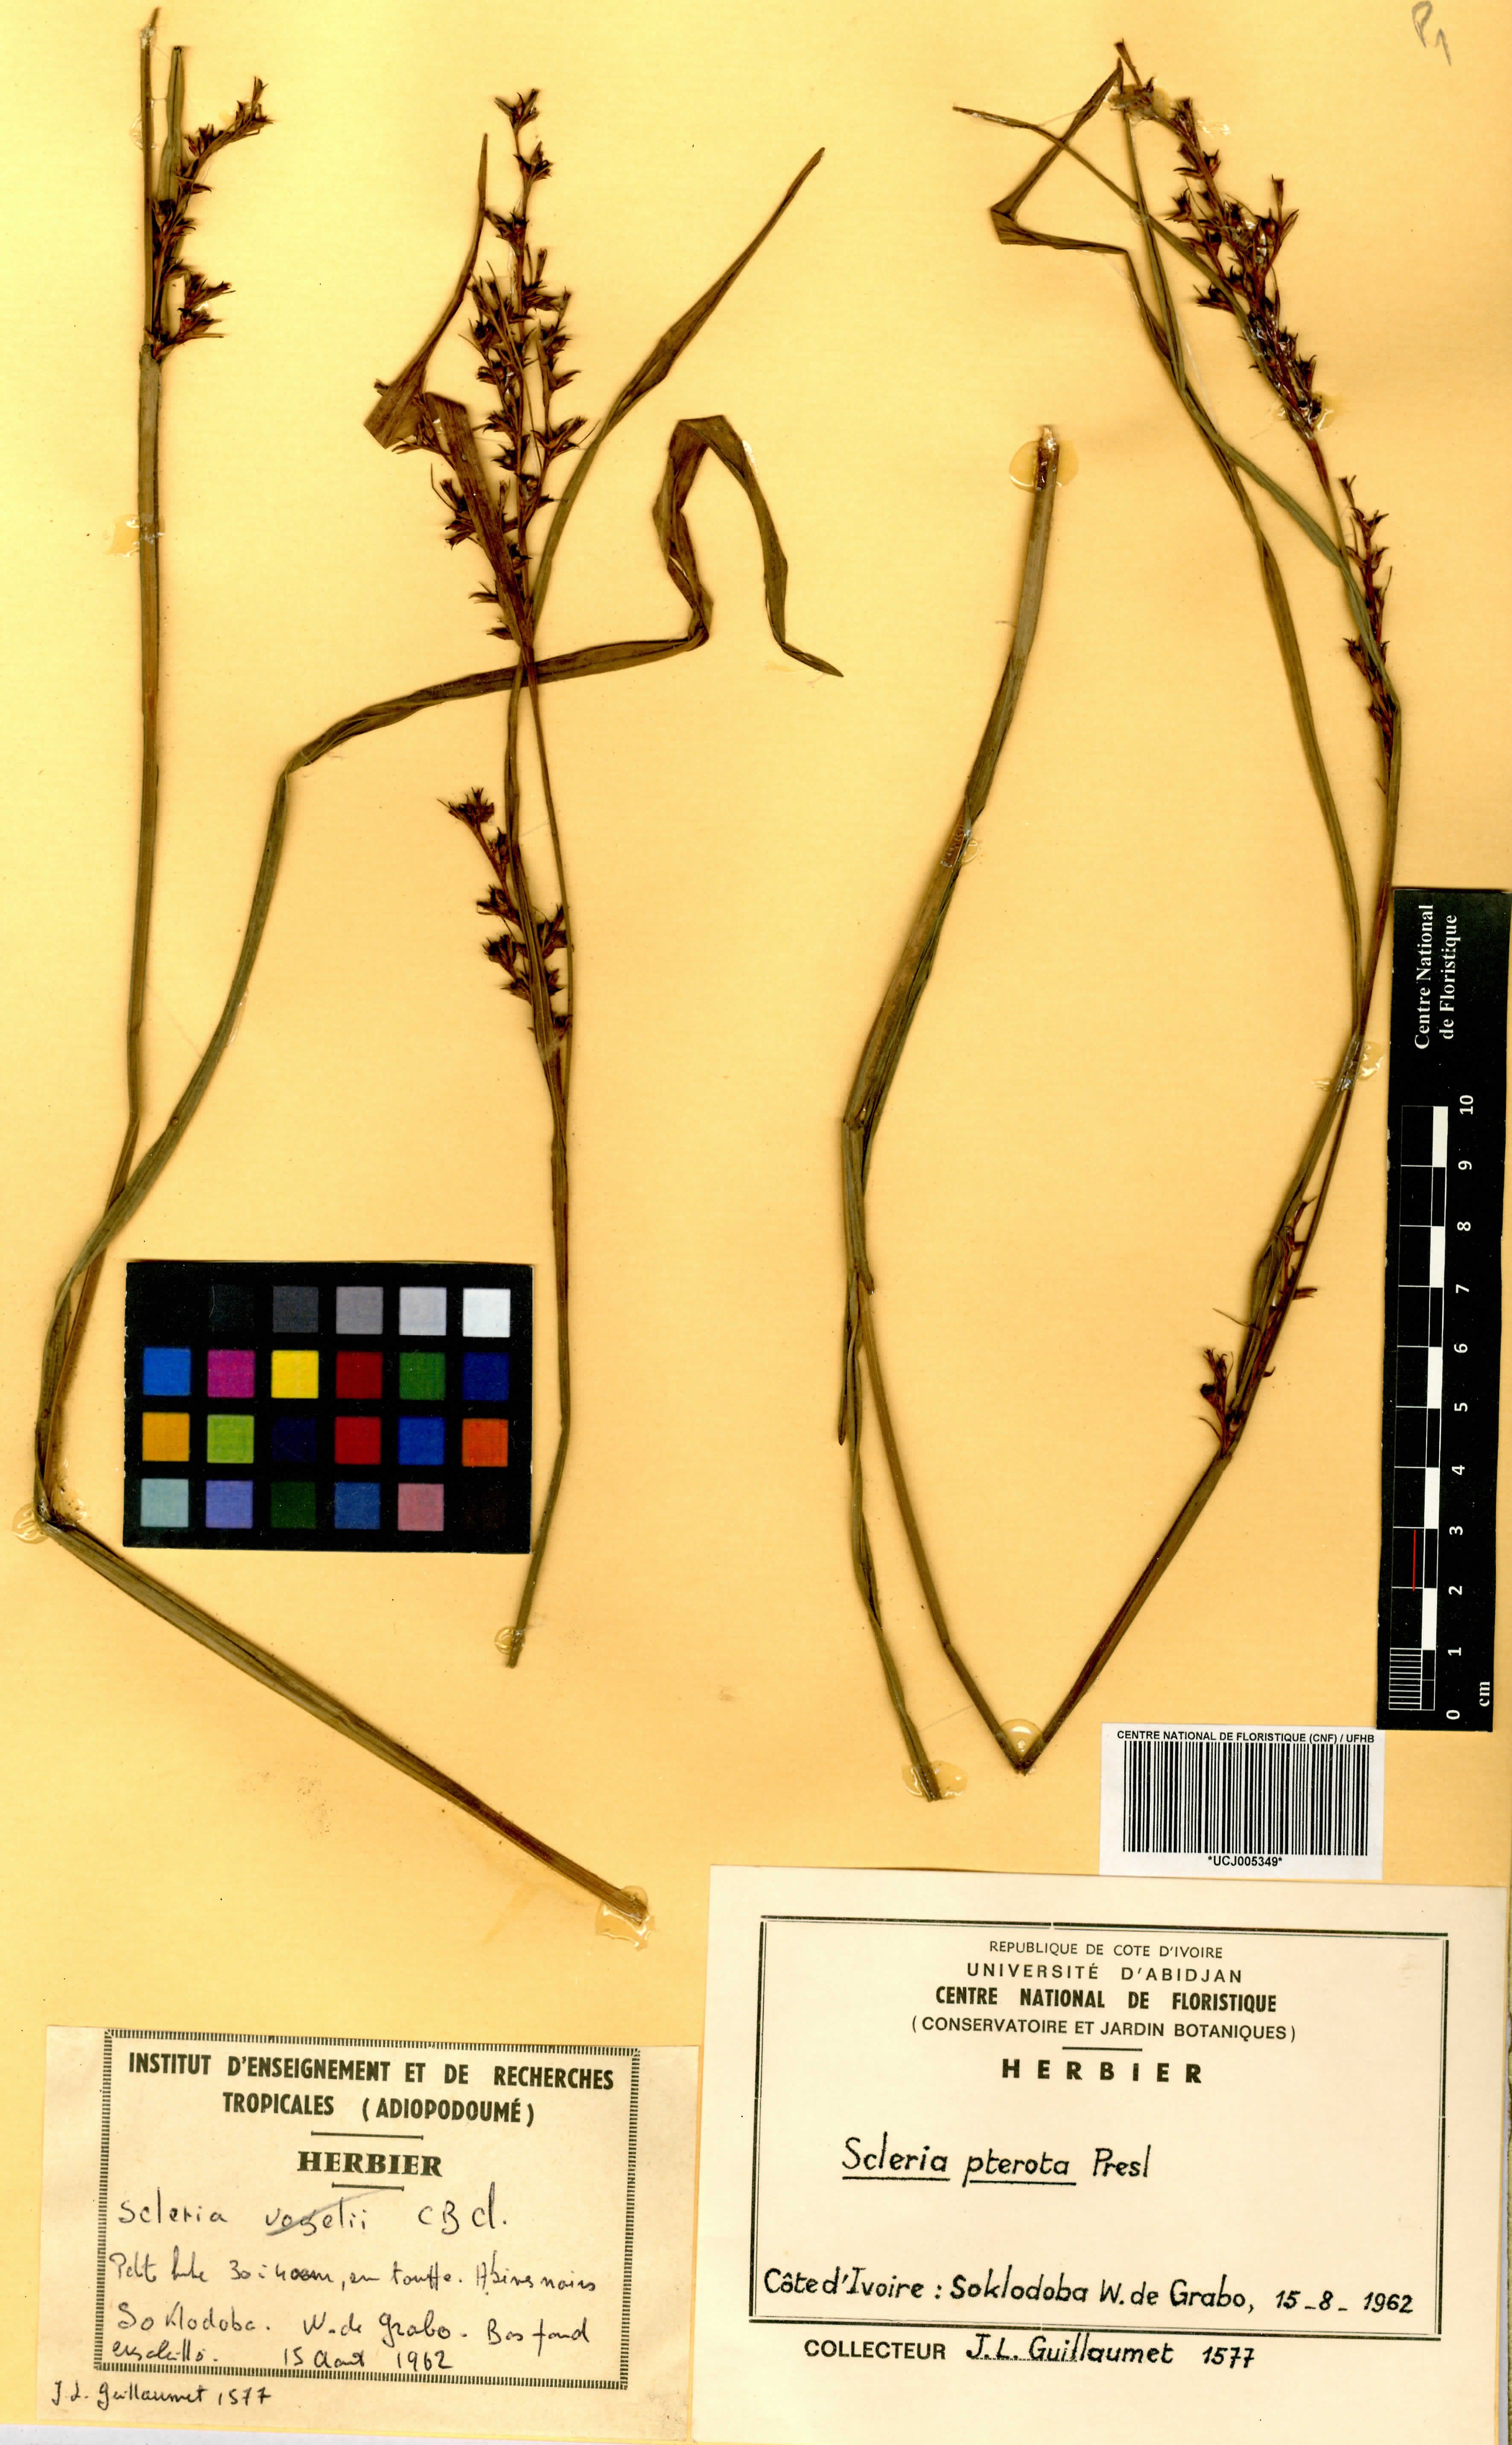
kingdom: Plantae
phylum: Tracheophyta
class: Liliopsida
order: Poales
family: Cyperaceae
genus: Scleria
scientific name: Scleria gaertneri
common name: Cortadera blanca
